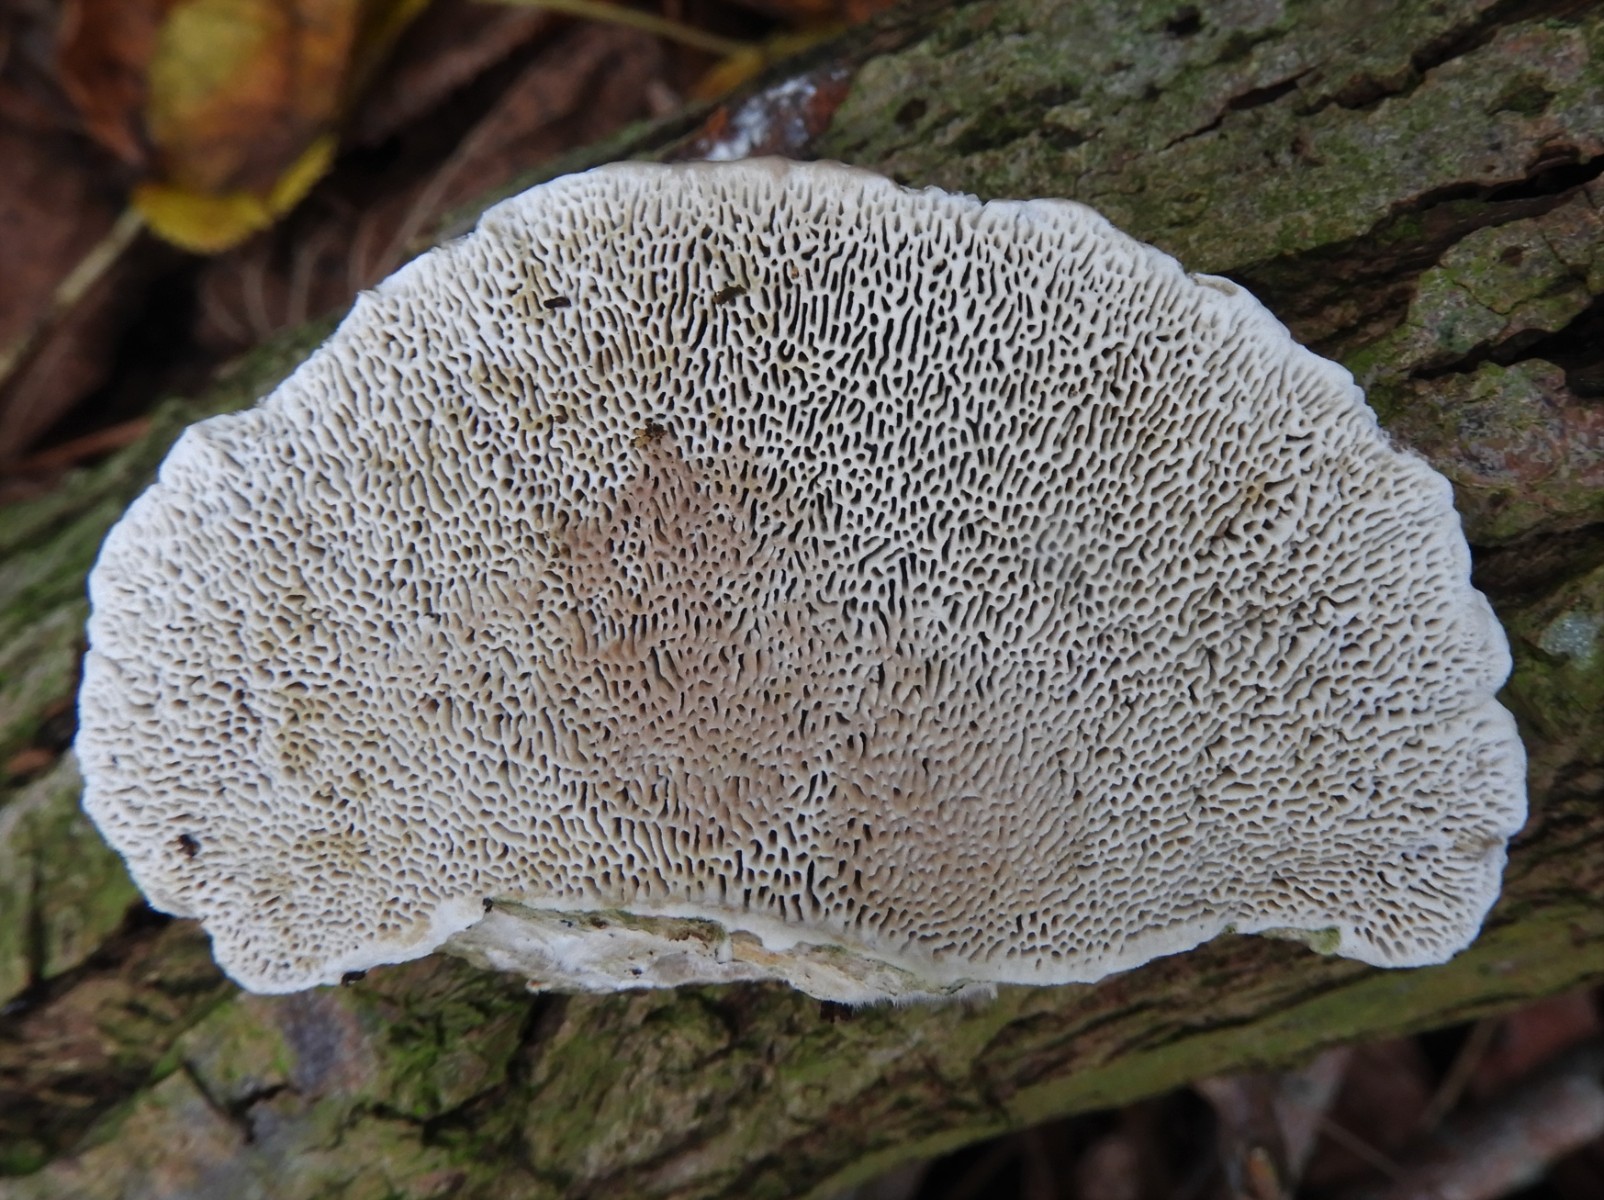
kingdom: Fungi
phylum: Basidiomycota
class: Agaricomycetes
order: Polyporales
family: Polyporaceae
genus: Daedaleopsis
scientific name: Daedaleopsis confragosa
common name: rødmende læderporesvamp
